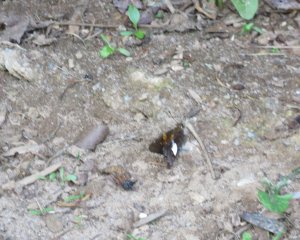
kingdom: Animalia
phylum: Arthropoda
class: Insecta
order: Lepidoptera
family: Hesperiidae
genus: Epargyreus
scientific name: Epargyreus clarus
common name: Silver-spotted Skipper
